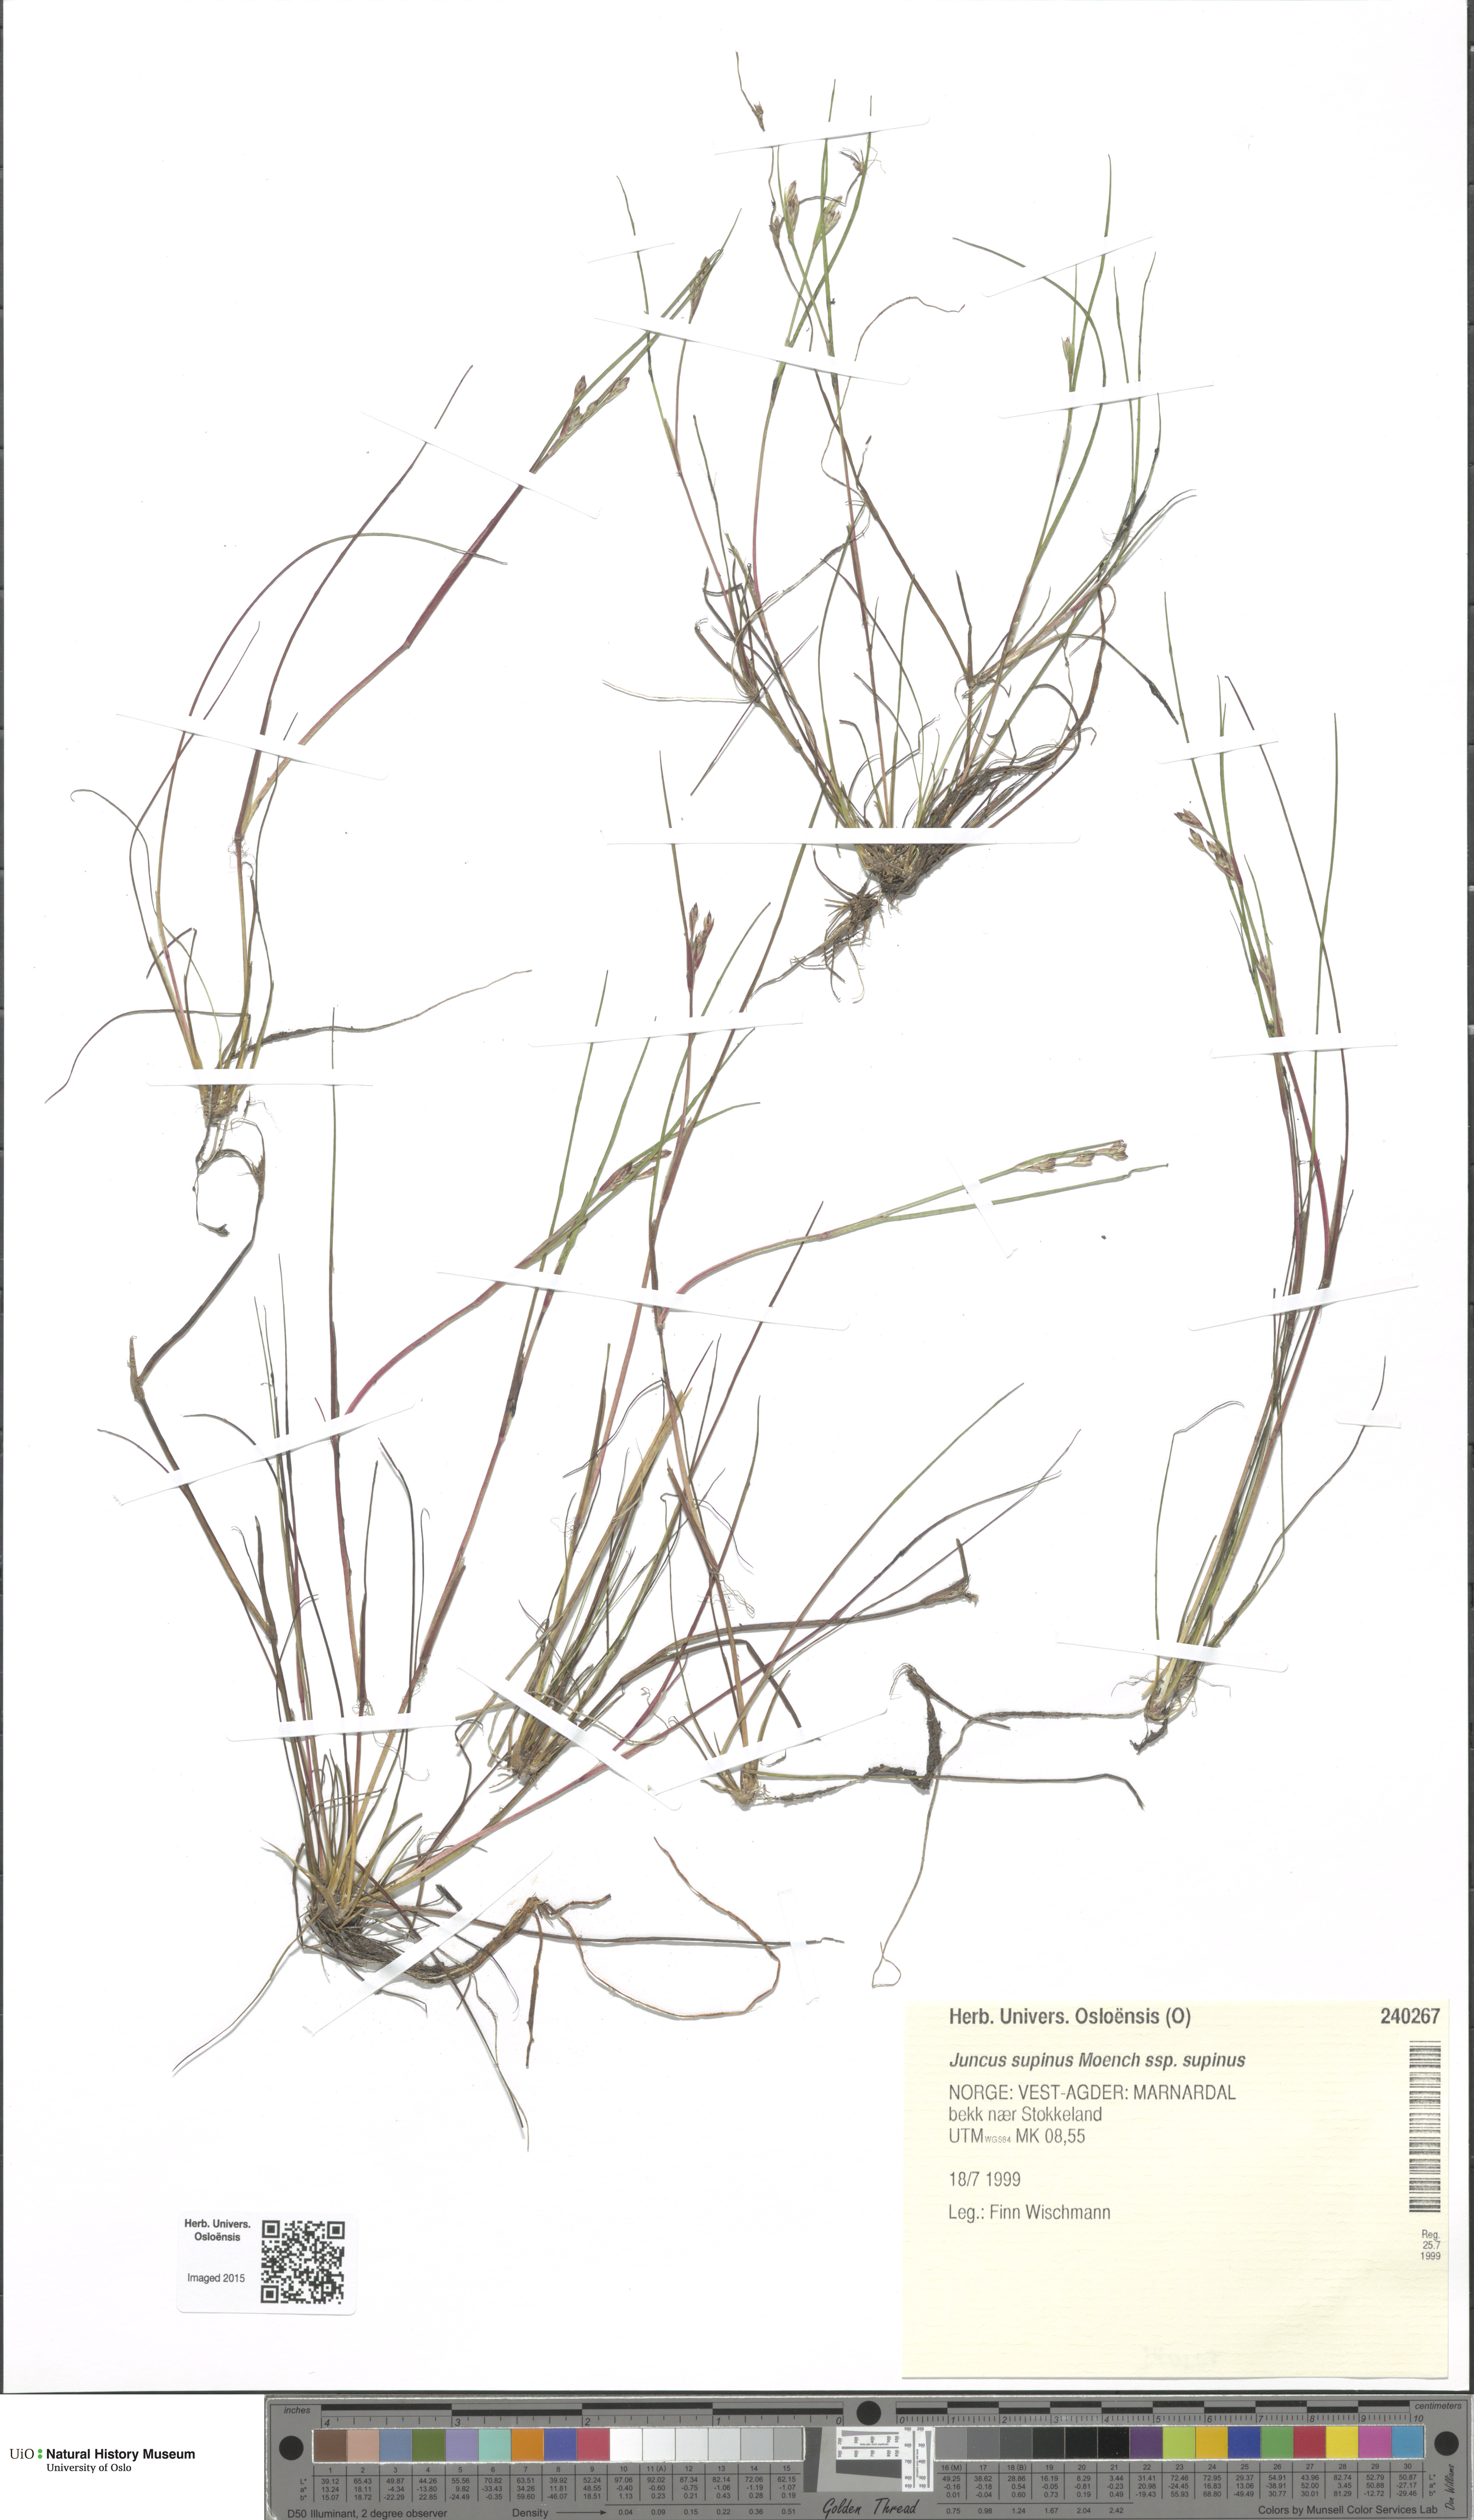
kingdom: Plantae
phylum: Tracheophyta
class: Liliopsida
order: Poales
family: Juncaceae
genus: Juncus
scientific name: Juncus bulbosus
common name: Bulbous rush
